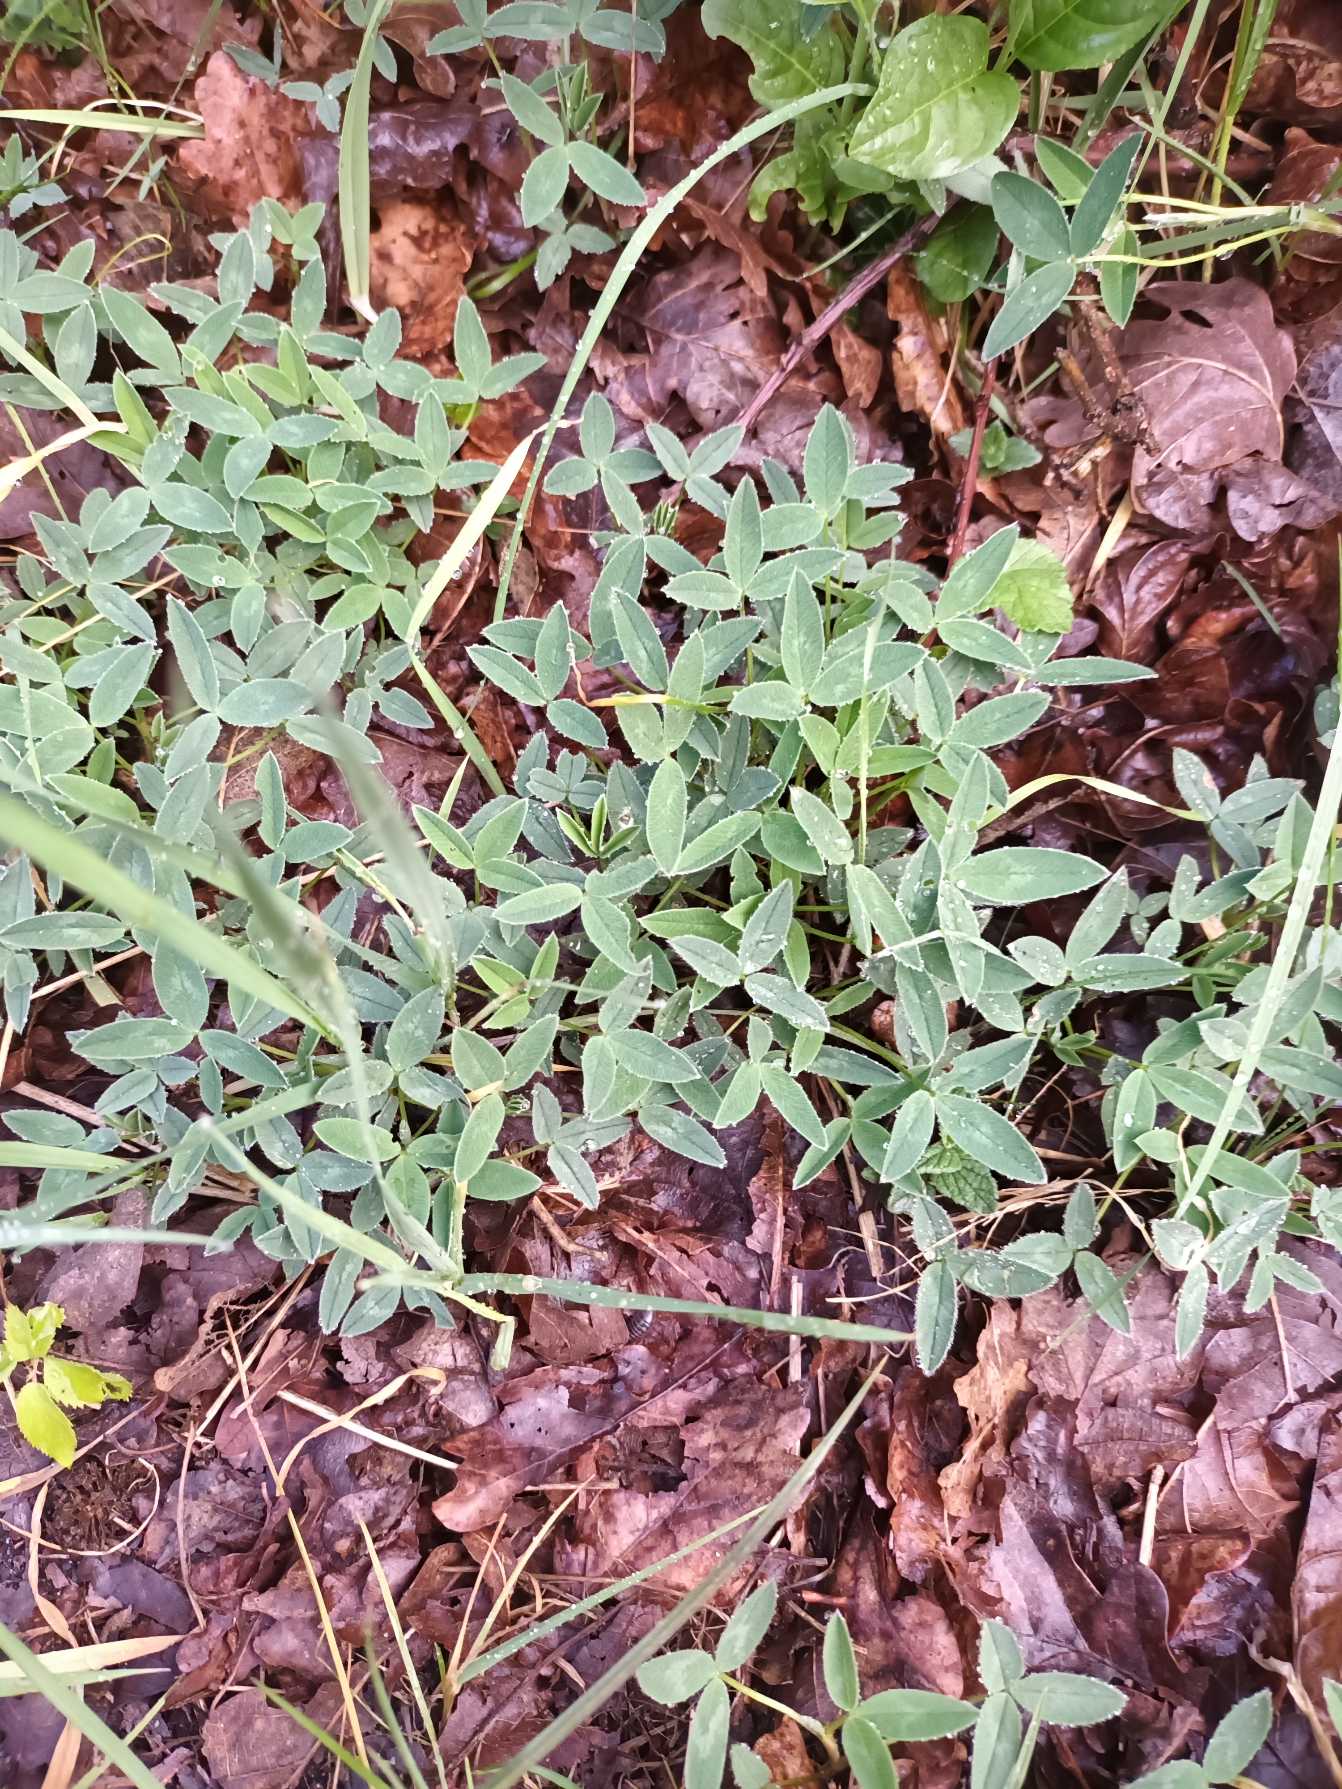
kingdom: Plantae
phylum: Tracheophyta
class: Magnoliopsida
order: Fabales
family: Fabaceae
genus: Trifolium
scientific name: Trifolium medium
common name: Bugtet kløver
